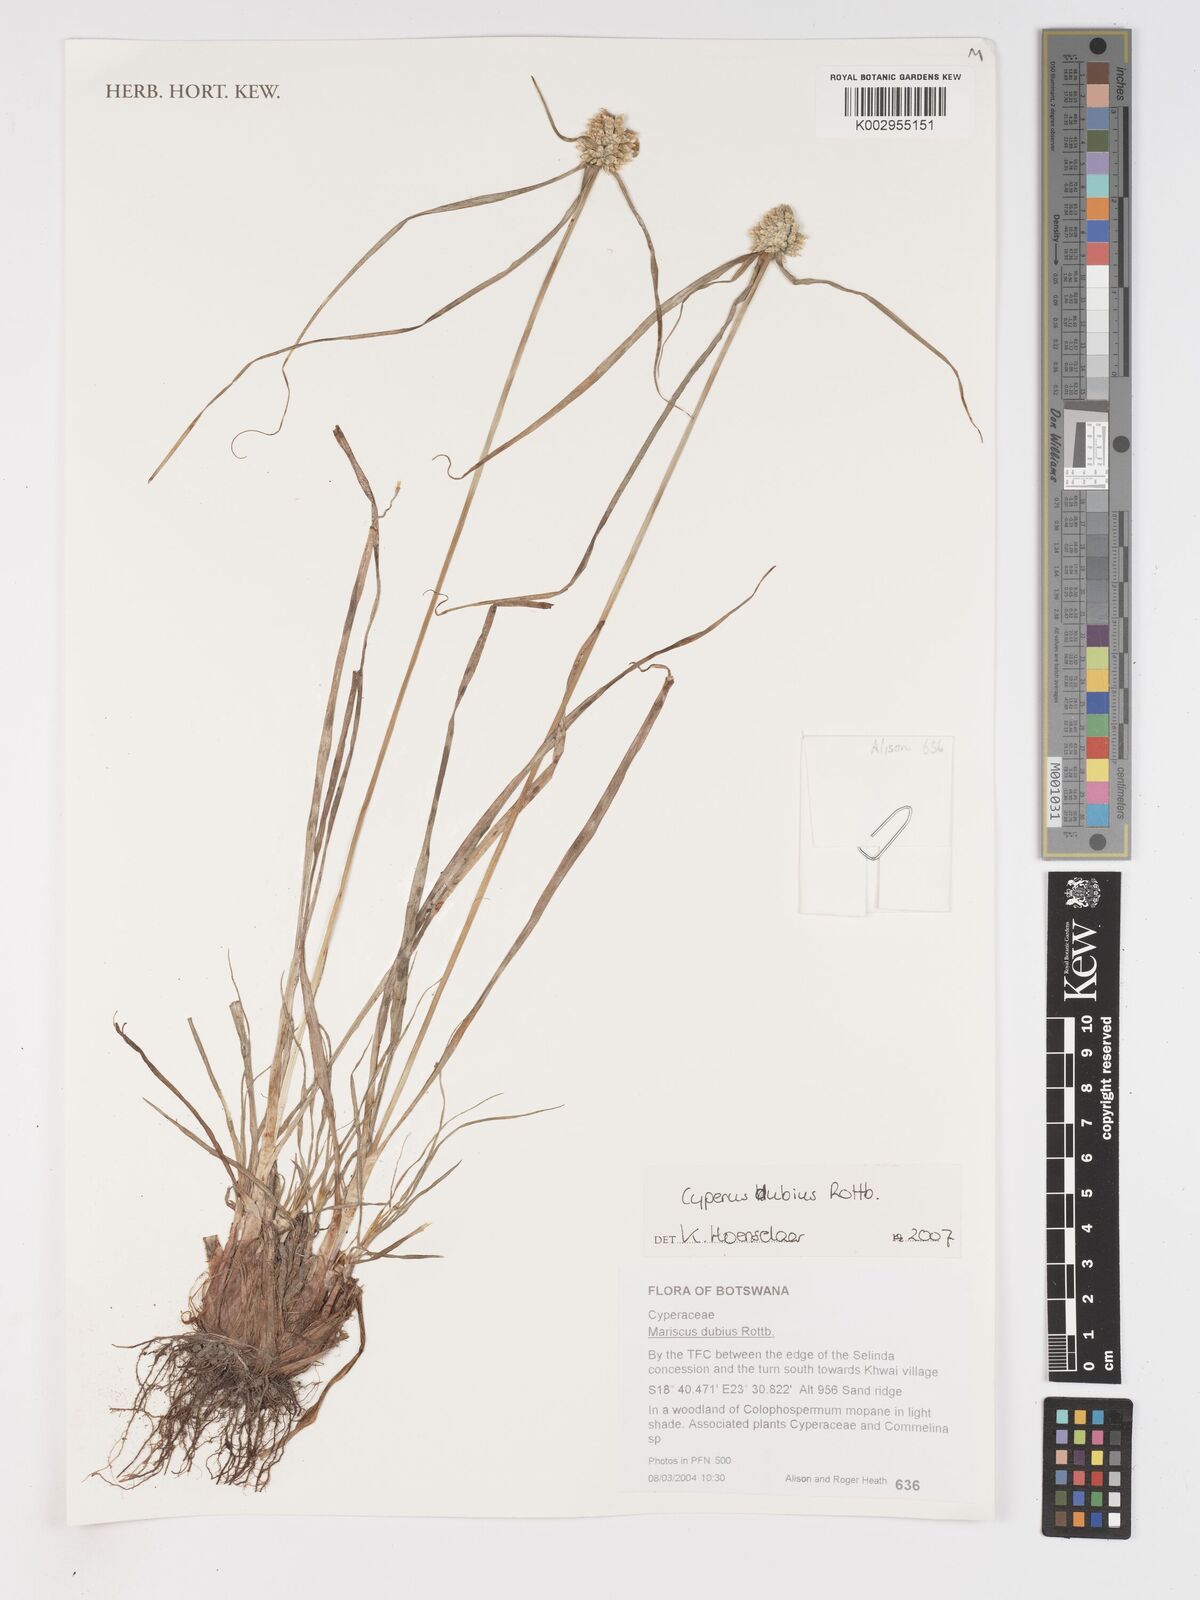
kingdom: Plantae
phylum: Tracheophyta
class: Liliopsida
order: Poales
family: Cyperaceae
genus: Cyperus
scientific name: Cyperus dubius
